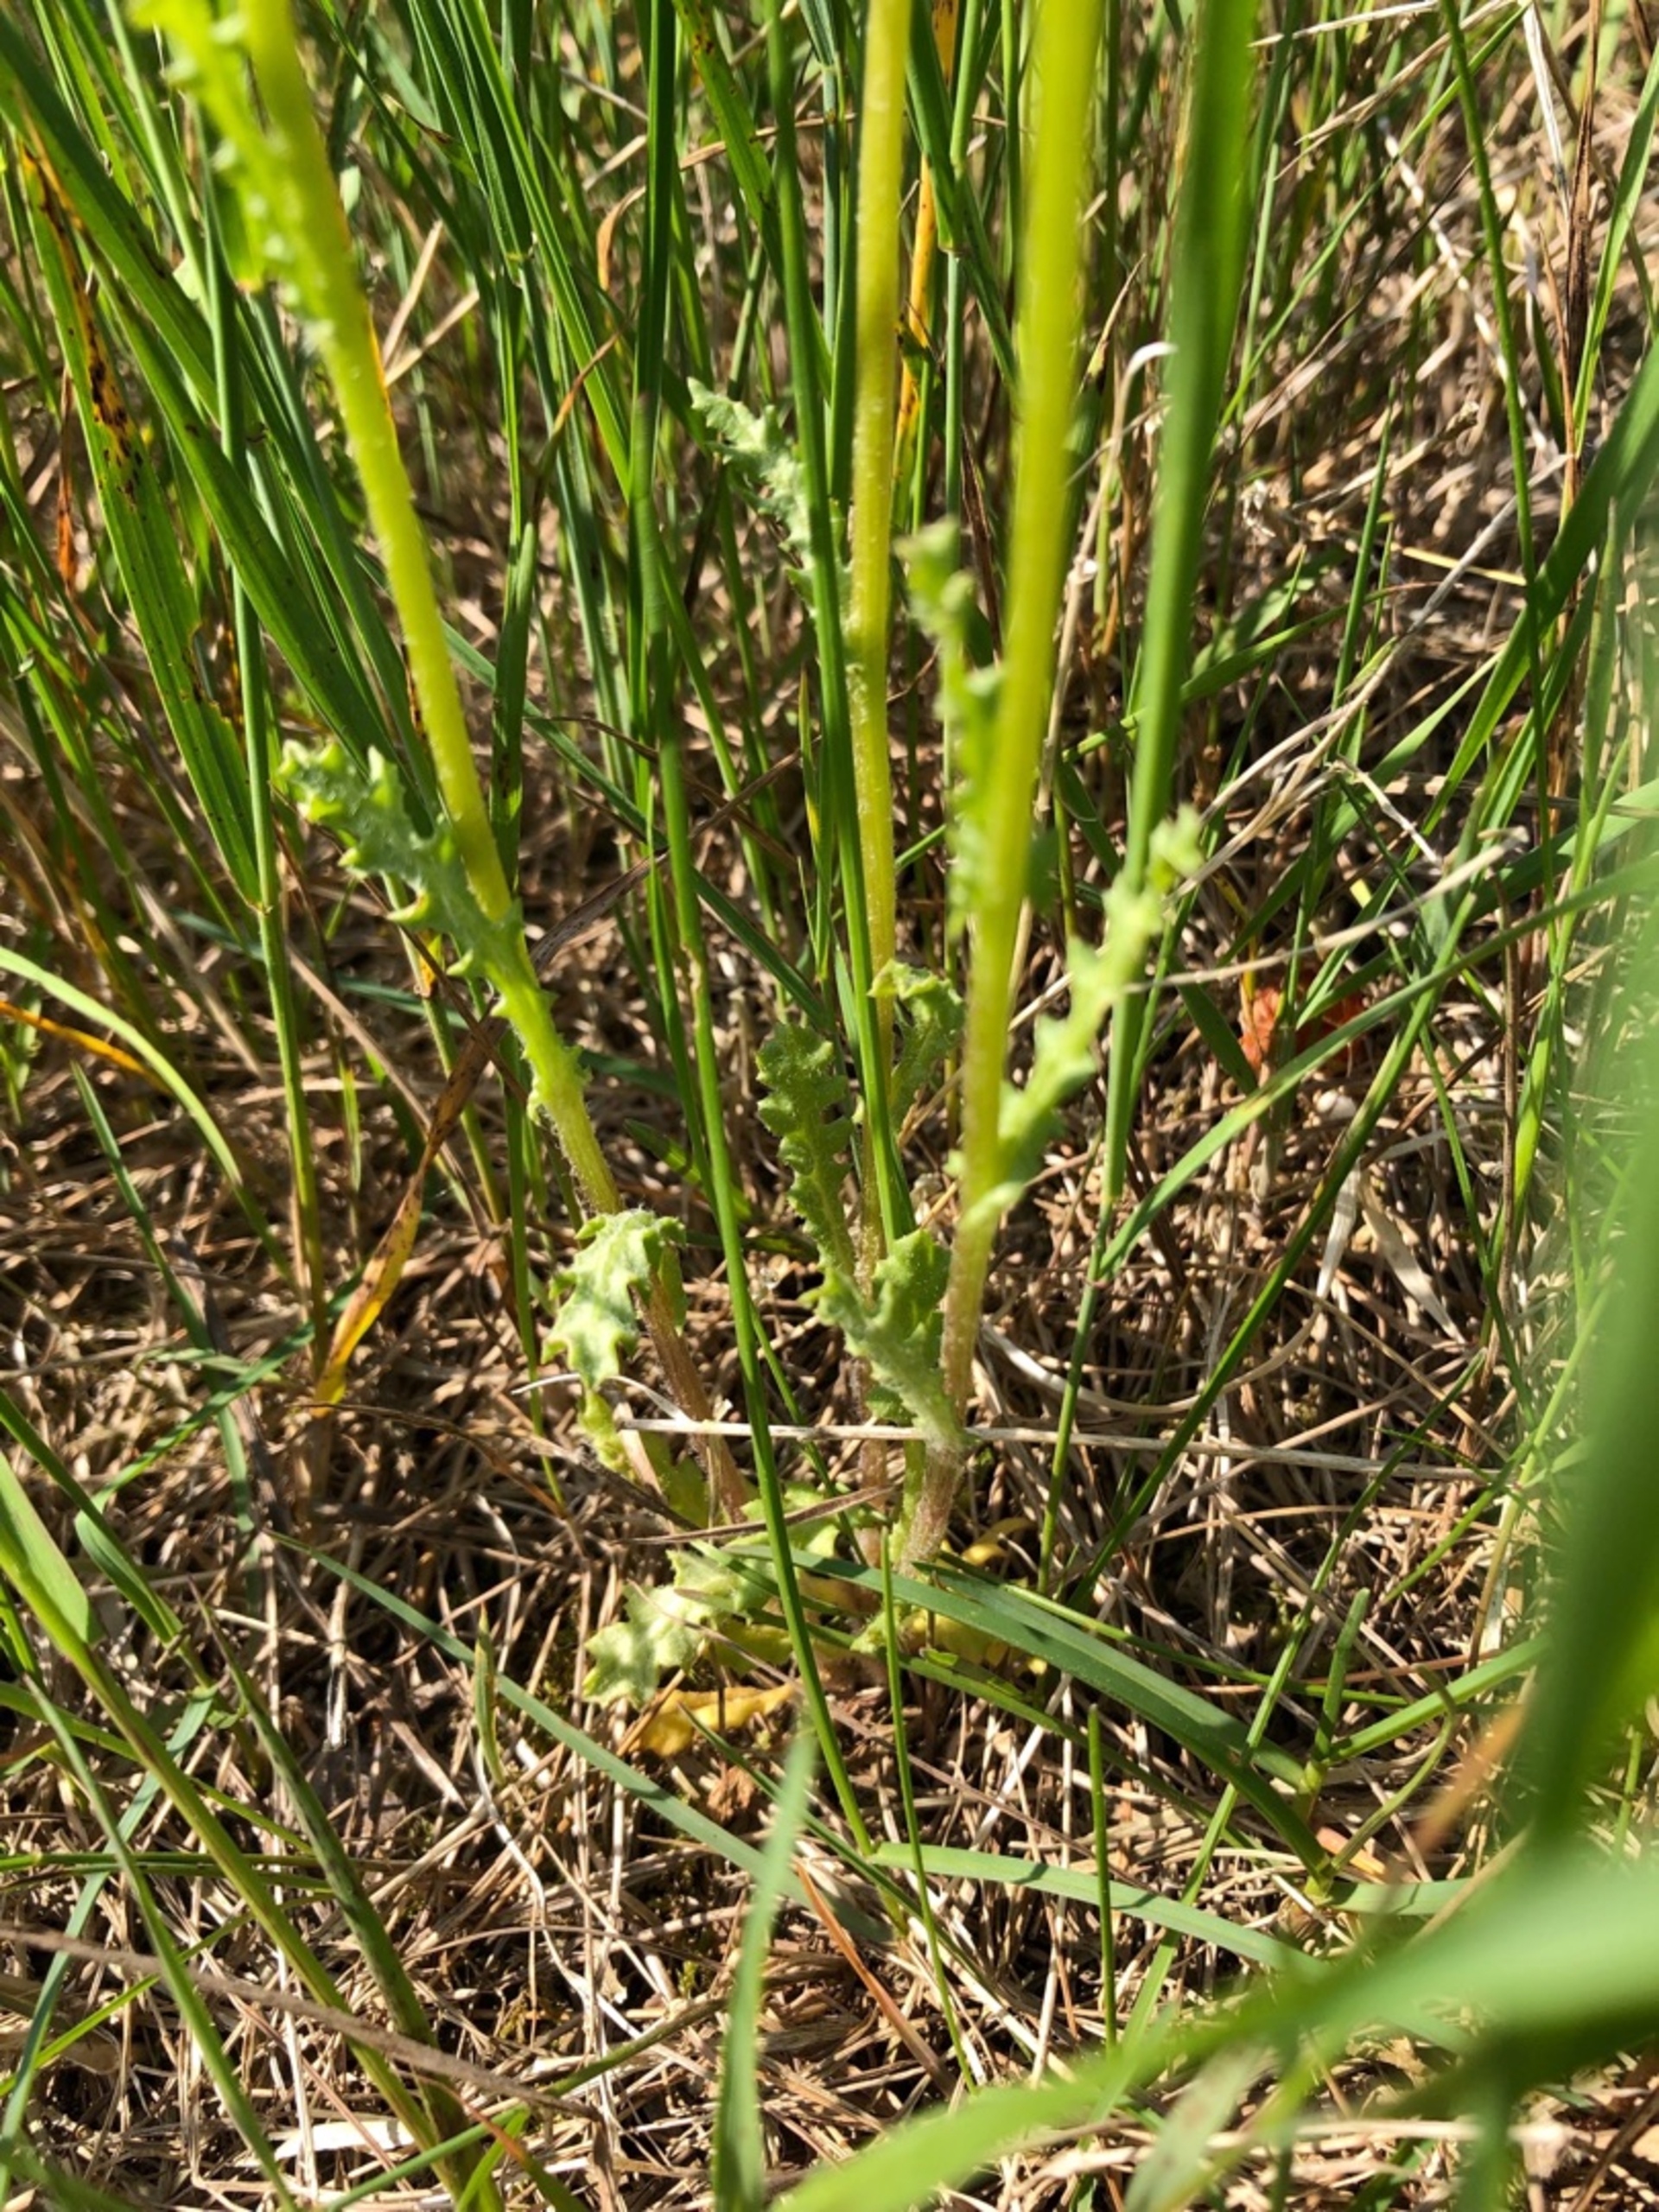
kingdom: Plantae
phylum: Tracheophyta
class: Magnoliopsida
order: Asterales
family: Asteraceae
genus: Senecio
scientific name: Senecio leucanthemifolius
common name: Vår-brandbæger
